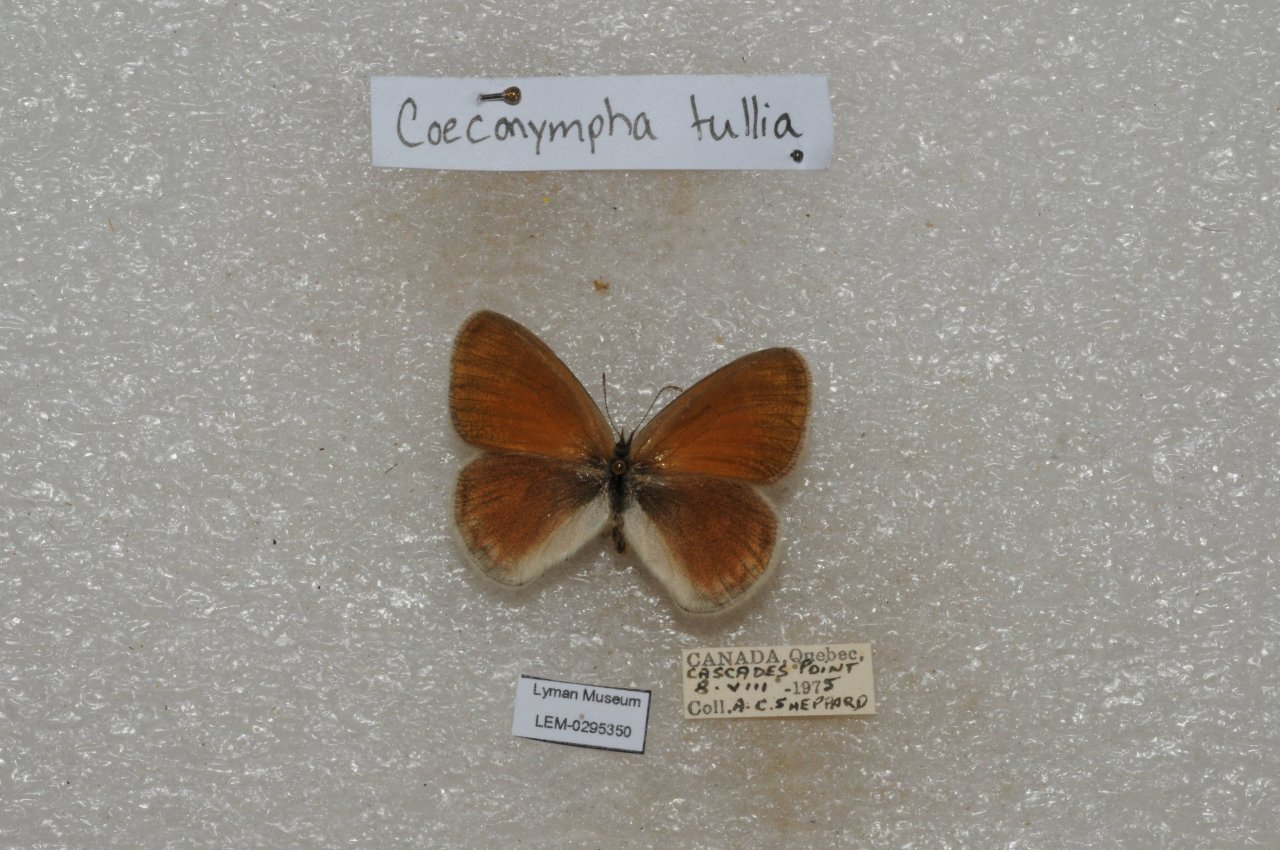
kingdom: Animalia
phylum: Arthropoda
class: Insecta
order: Lepidoptera
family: Nymphalidae
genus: Coenonympha
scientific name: Coenonympha tullia
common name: Large Heath
